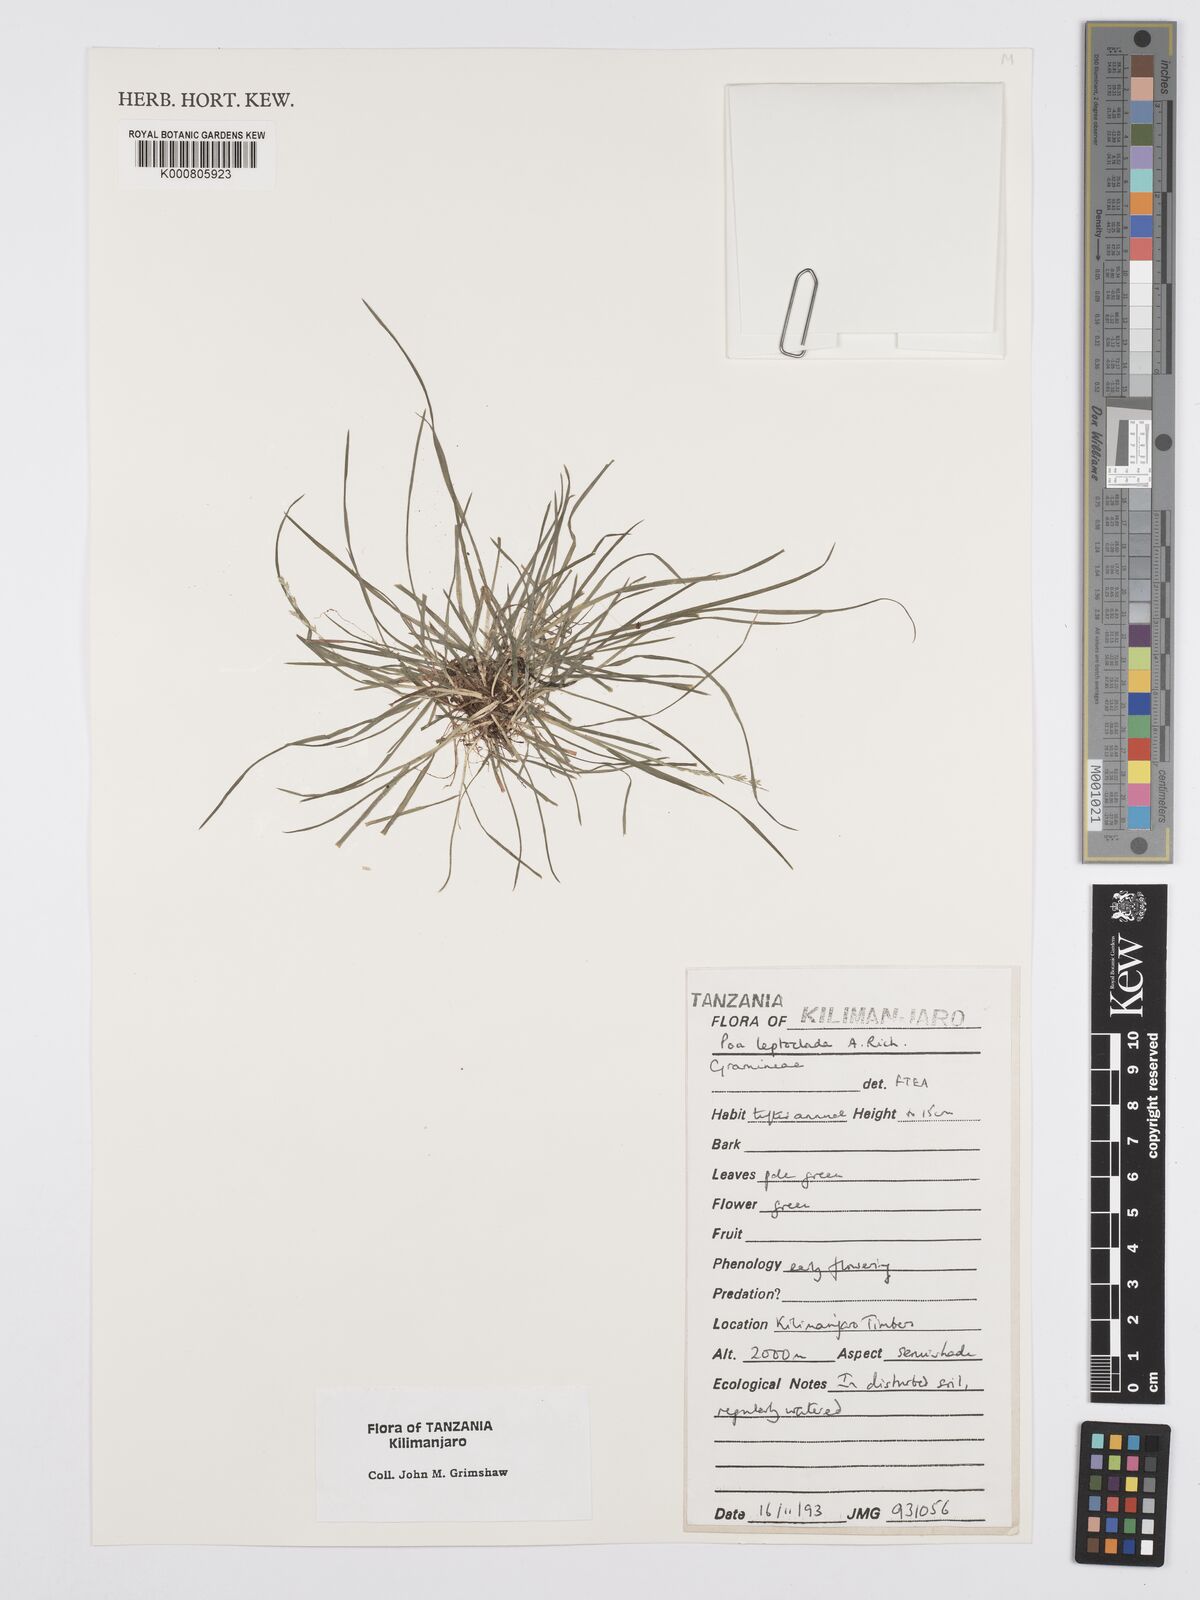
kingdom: Plantae
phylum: Tracheophyta
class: Liliopsida
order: Poales
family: Poaceae
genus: Poa
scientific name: Poa leptoclada
